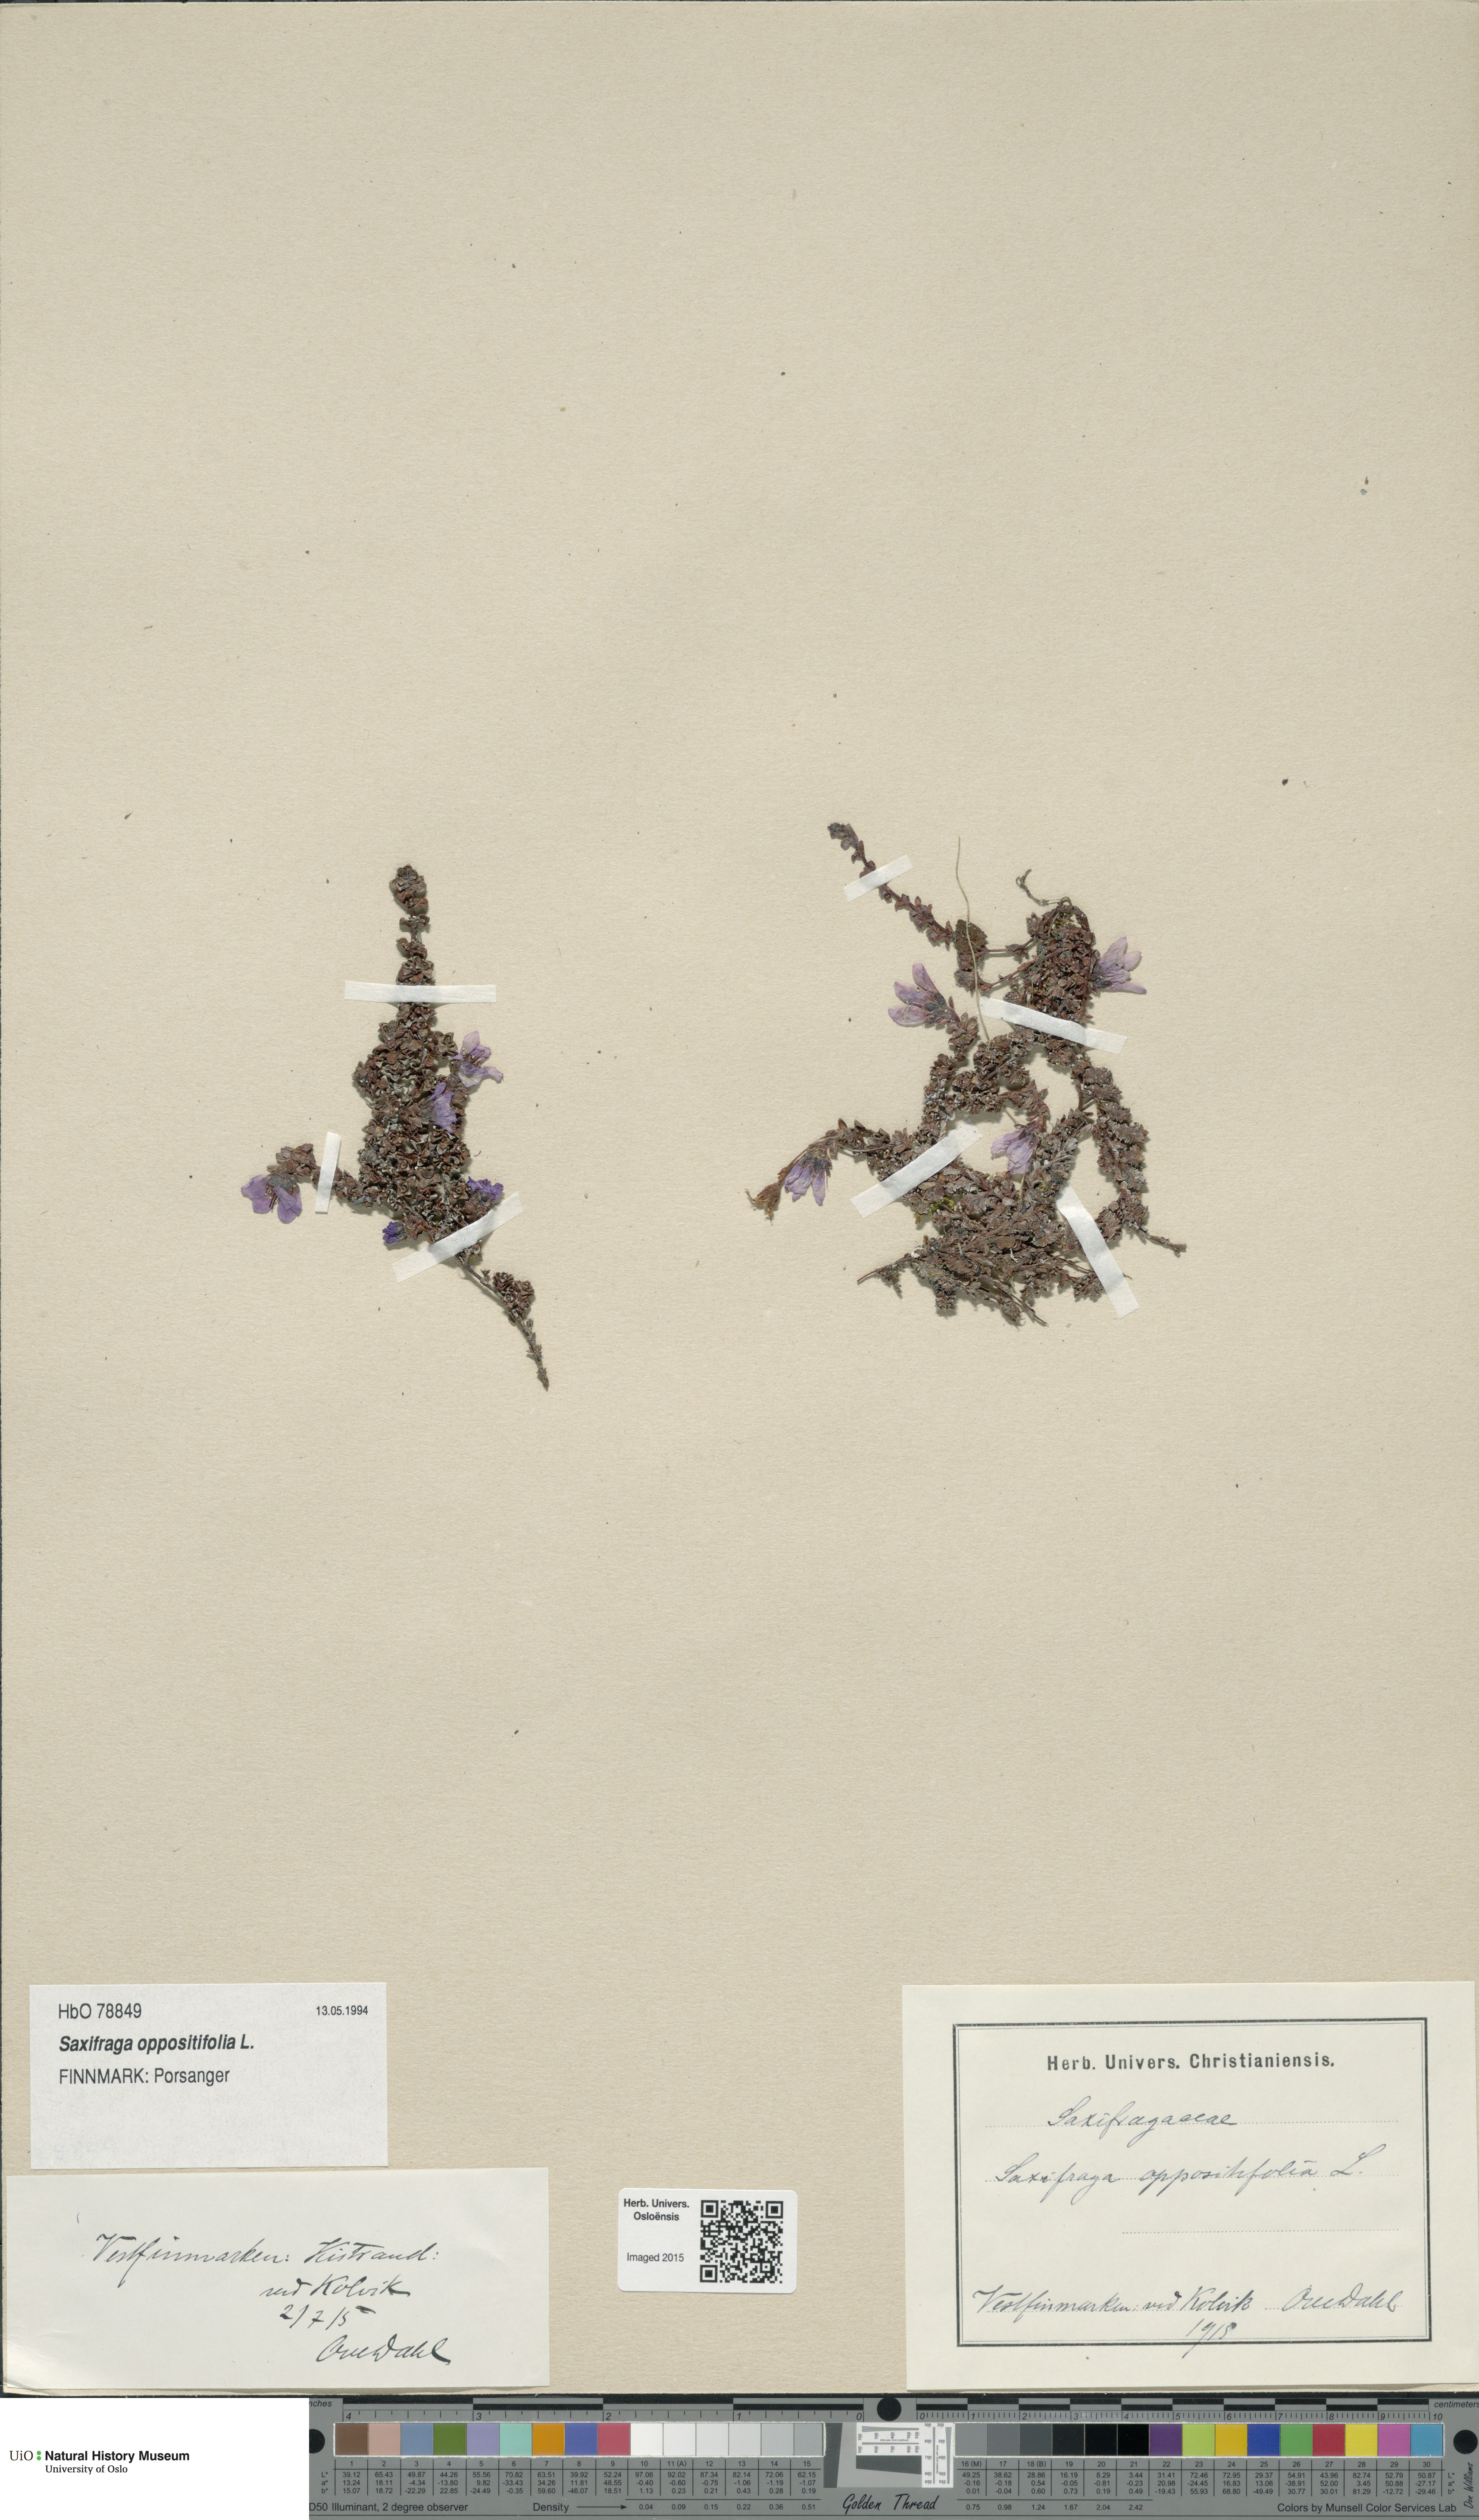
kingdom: Plantae
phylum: Tracheophyta
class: Magnoliopsida
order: Saxifragales
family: Saxifragaceae
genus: Saxifraga
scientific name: Saxifraga oppositifolia
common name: Purple saxifrage
